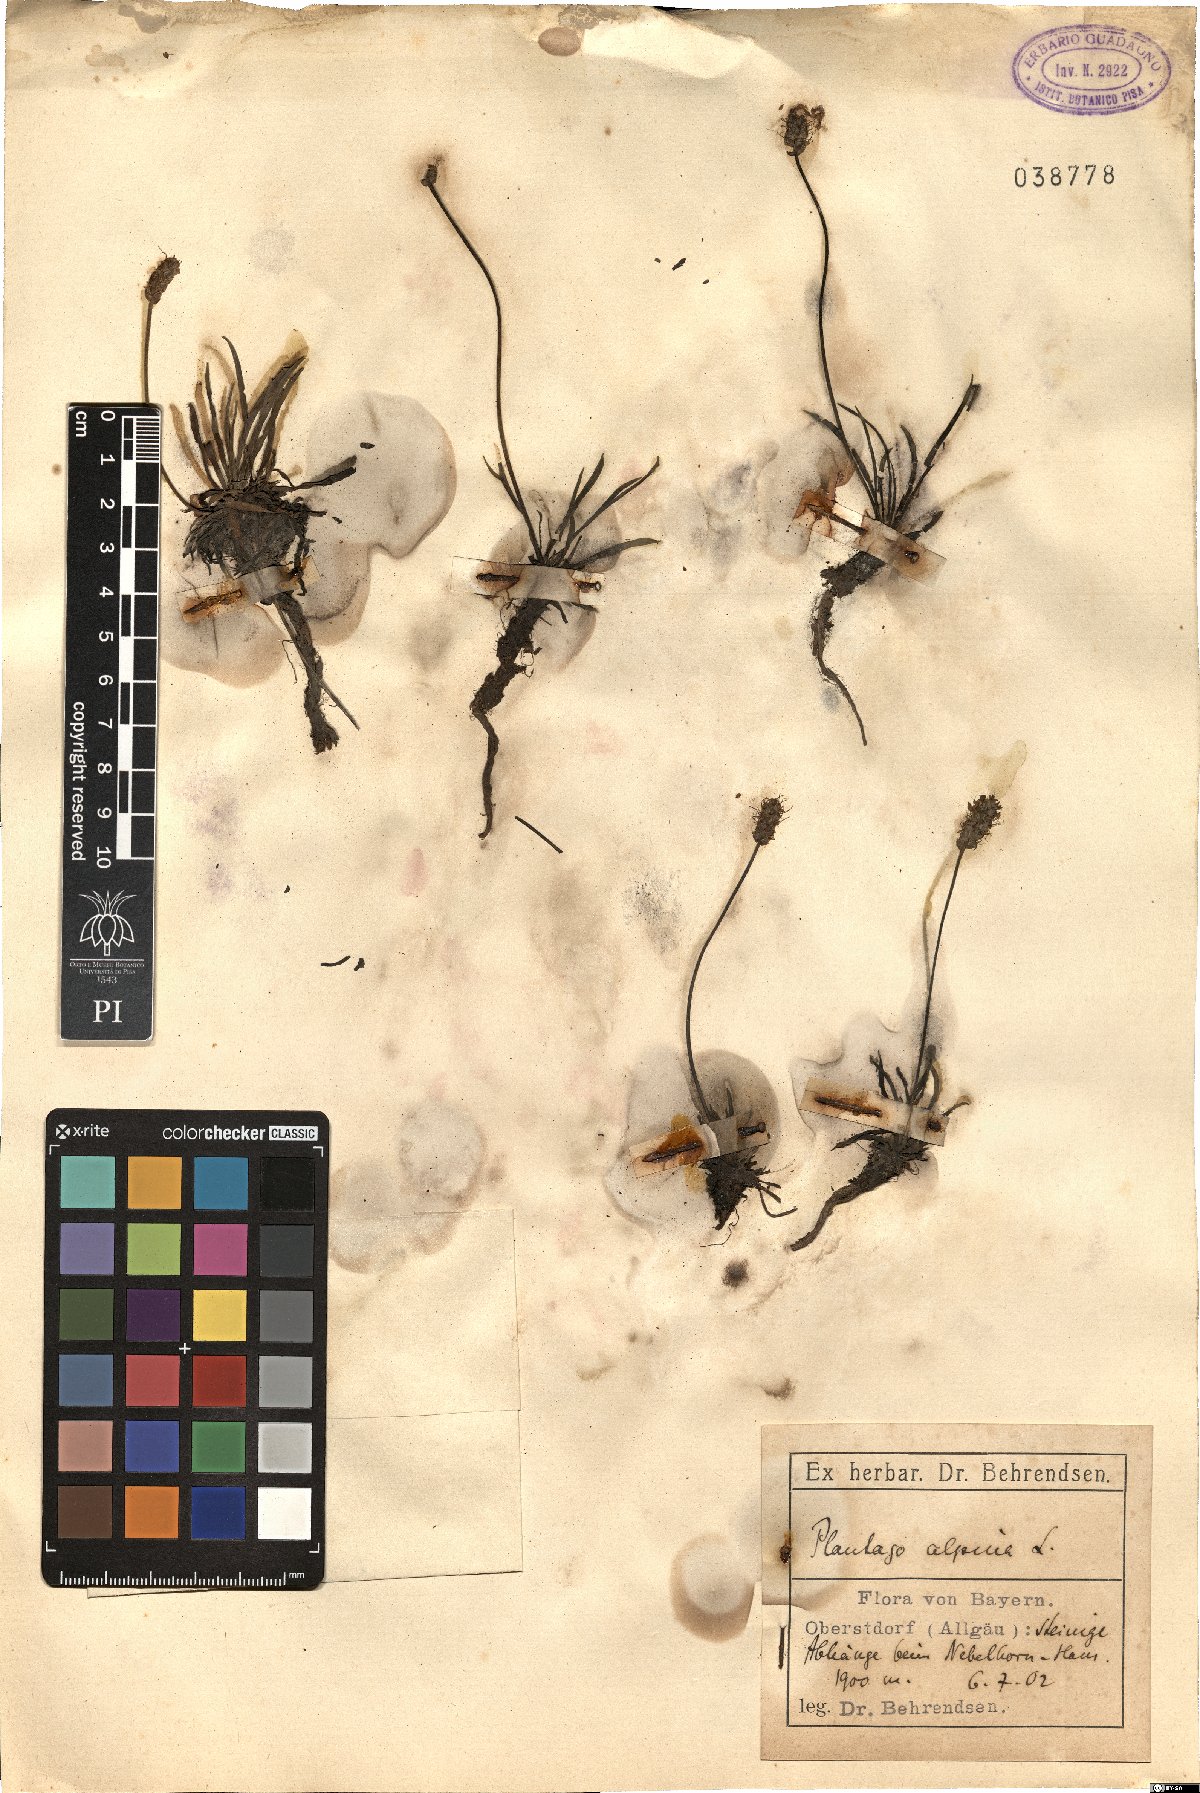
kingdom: Plantae
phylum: Tracheophyta
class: Magnoliopsida
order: Lamiales
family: Plantaginaceae
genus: Plantago
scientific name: Plantago alpina
